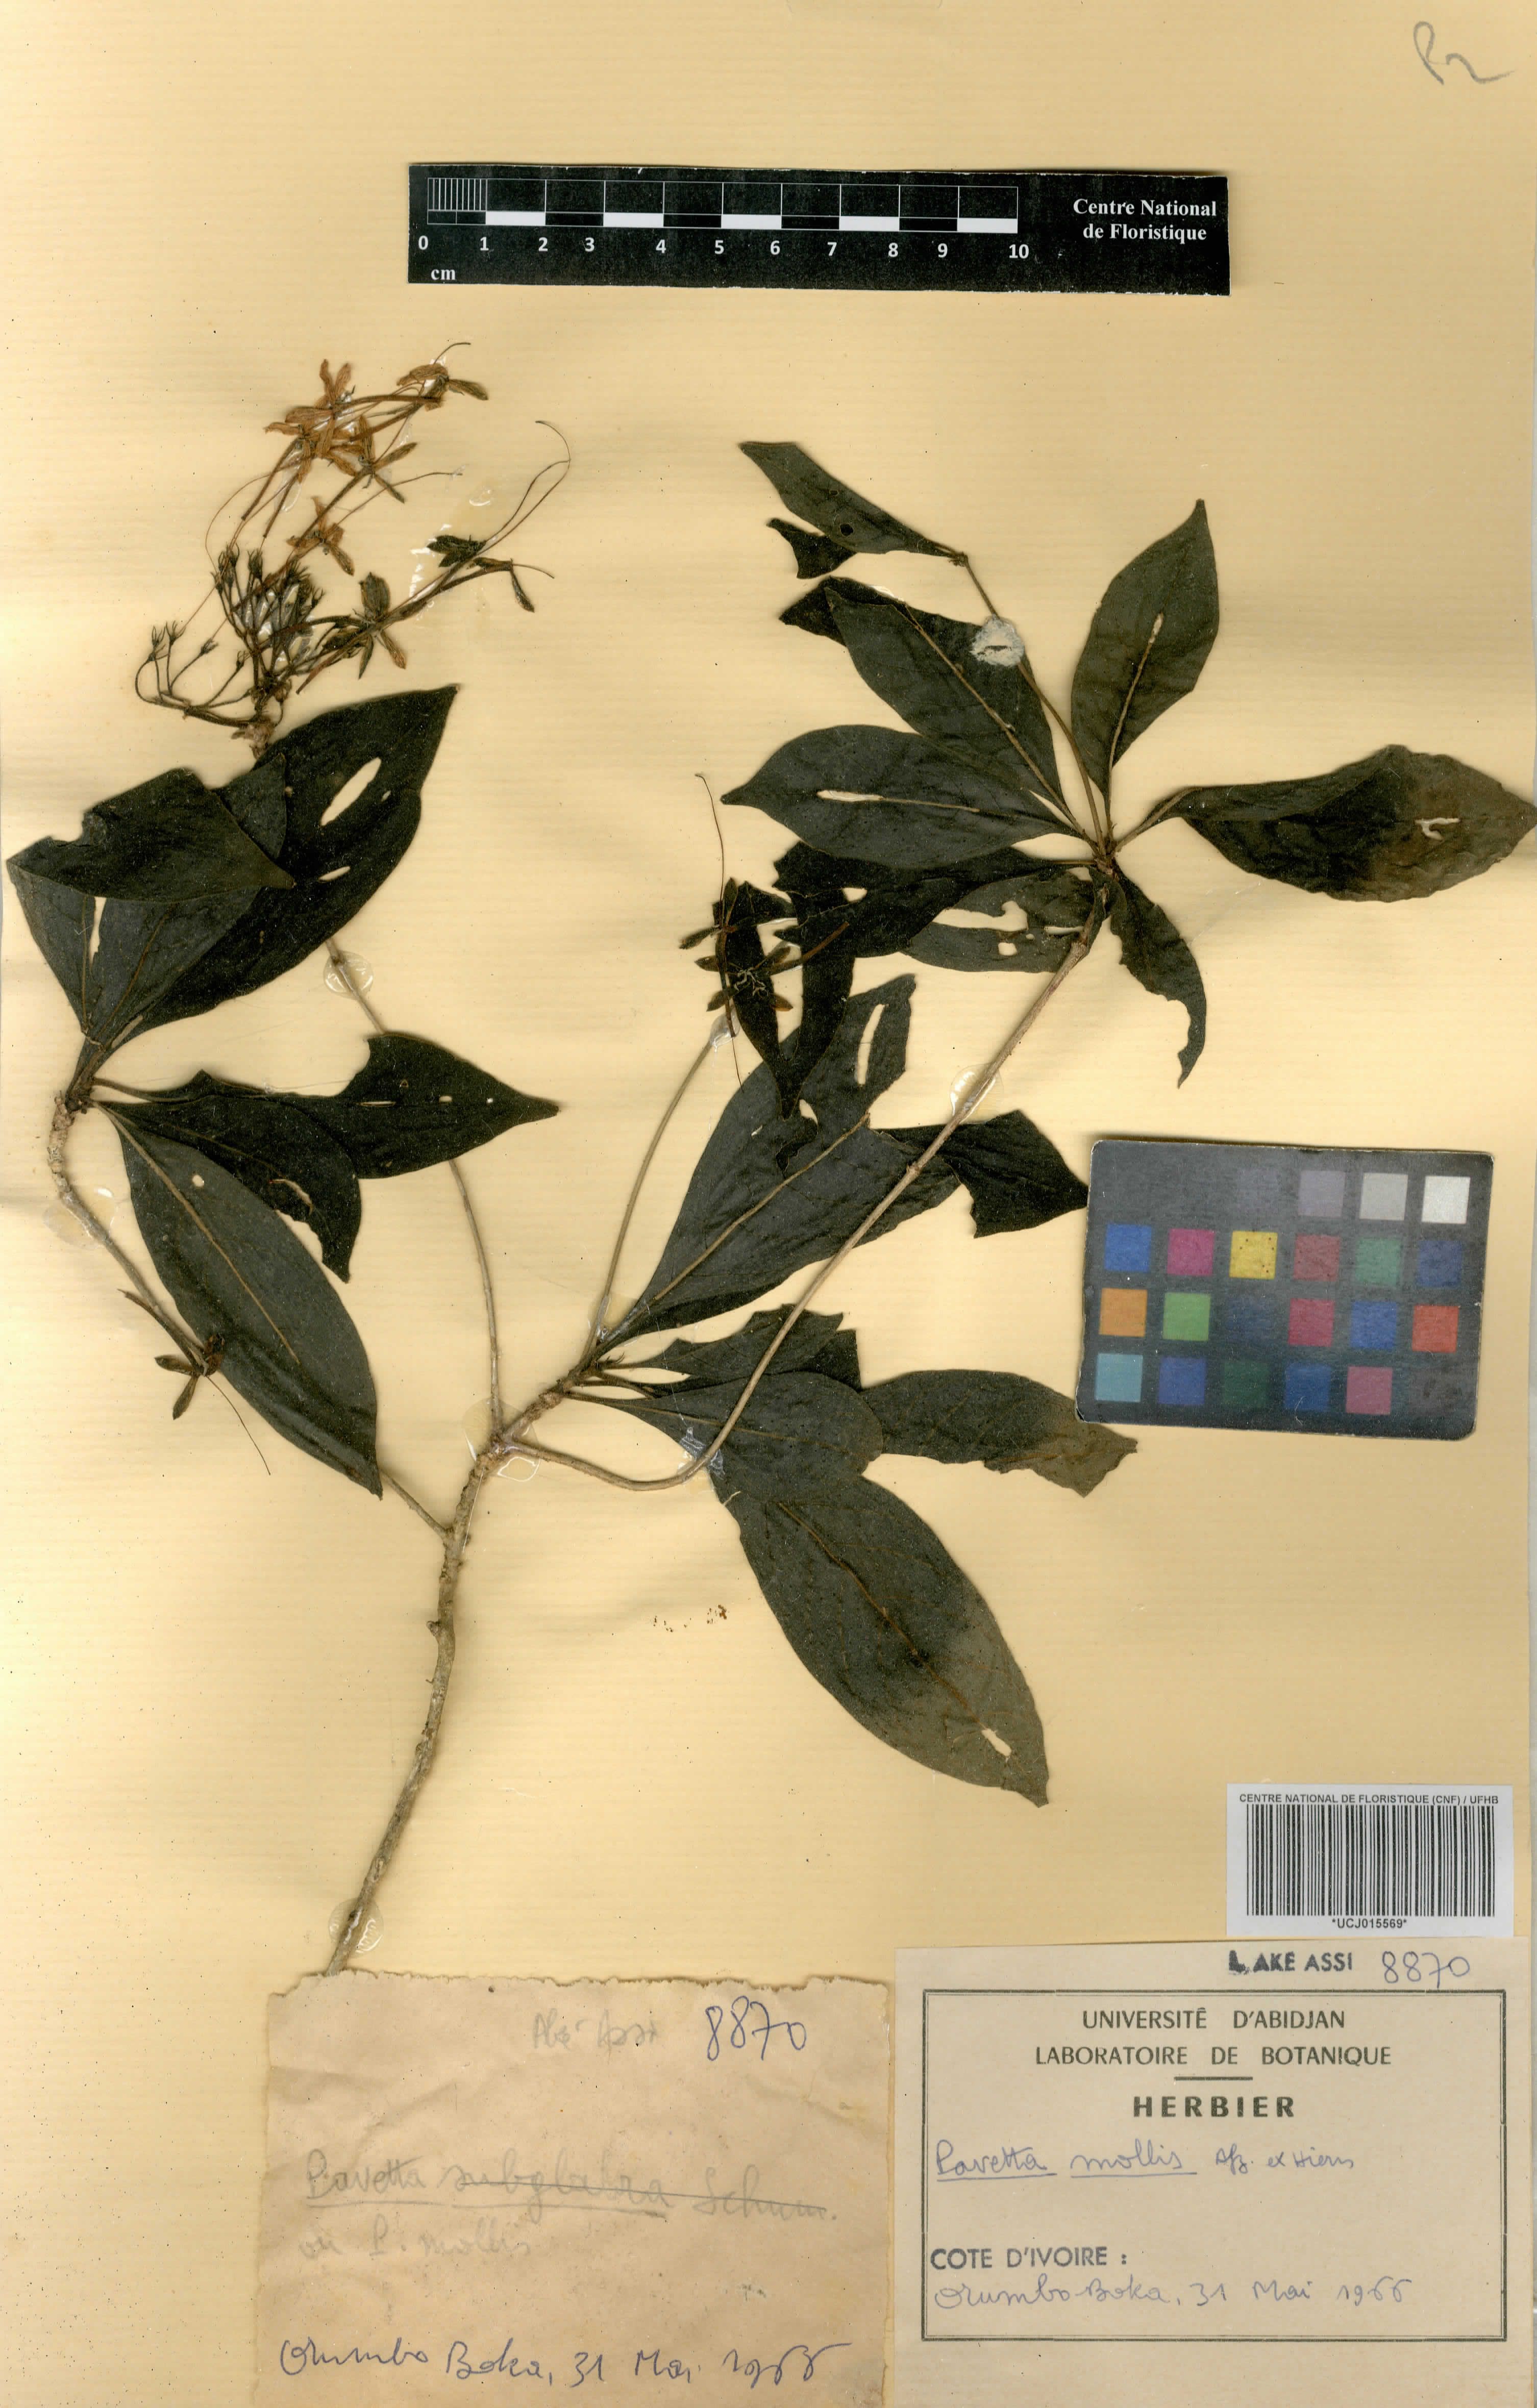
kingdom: Plantae
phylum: Tracheophyta
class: Magnoliopsida
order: Gentianales
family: Rubiaceae
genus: Pavetta
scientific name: Pavetta mollis
